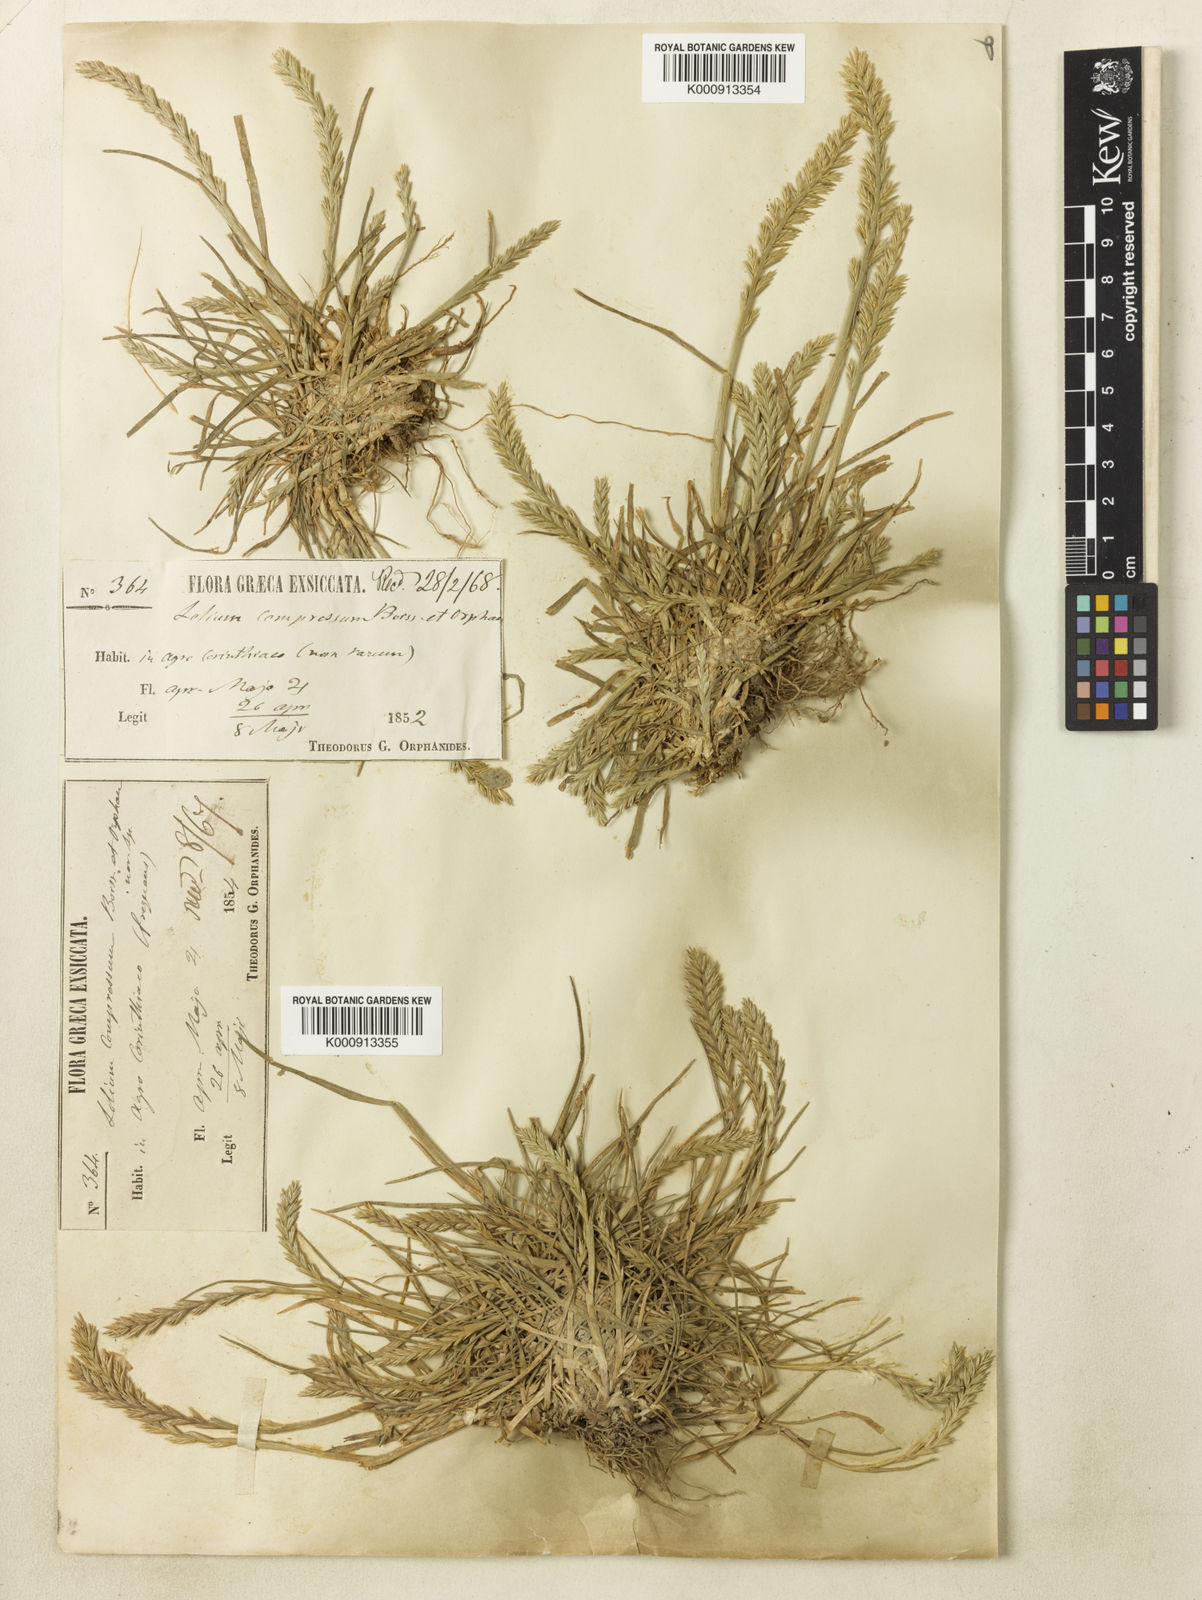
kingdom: Plantae
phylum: Tracheophyta
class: Liliopsida
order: Poales
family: Poaceae
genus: Lolium
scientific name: Lolium rigidum
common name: Wimmera ryegrass
